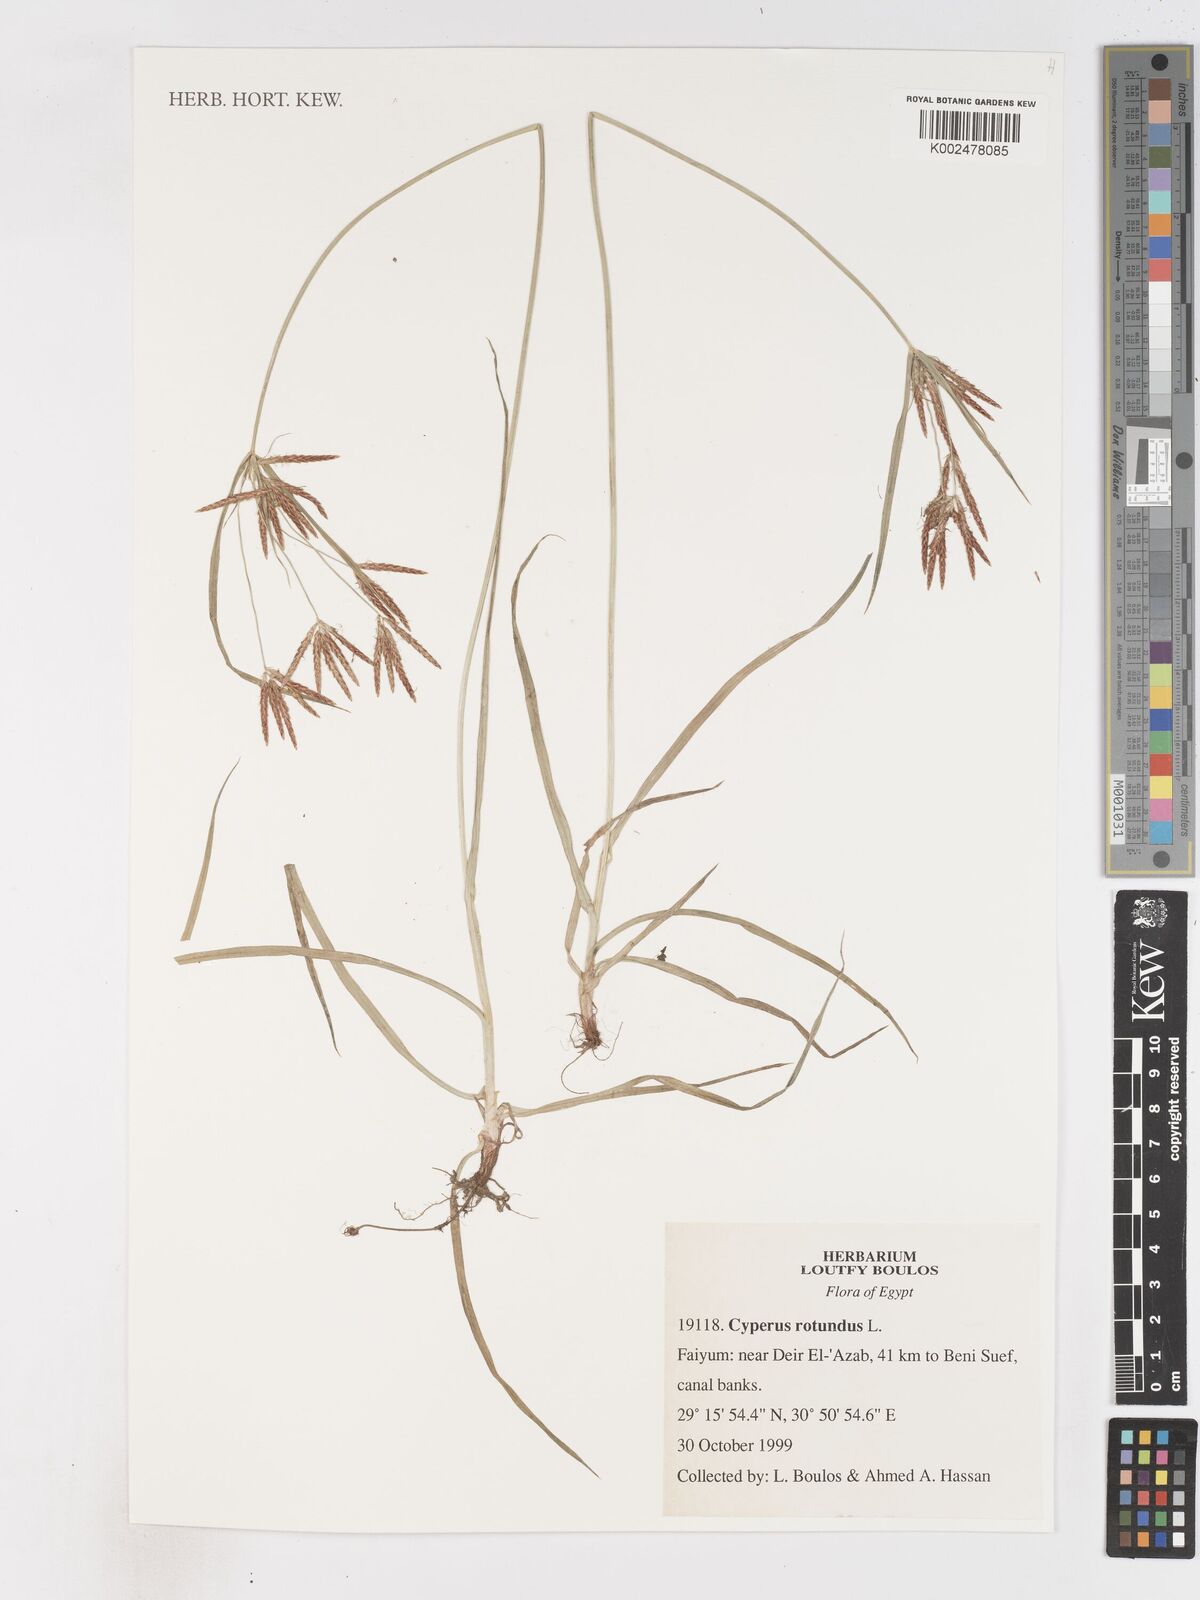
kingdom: Plantae
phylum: Tracheophyta
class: Liliopsida
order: Poales
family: Cyperaceae
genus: Cyperus
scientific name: Cyperus rotundus
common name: Nutgrass
